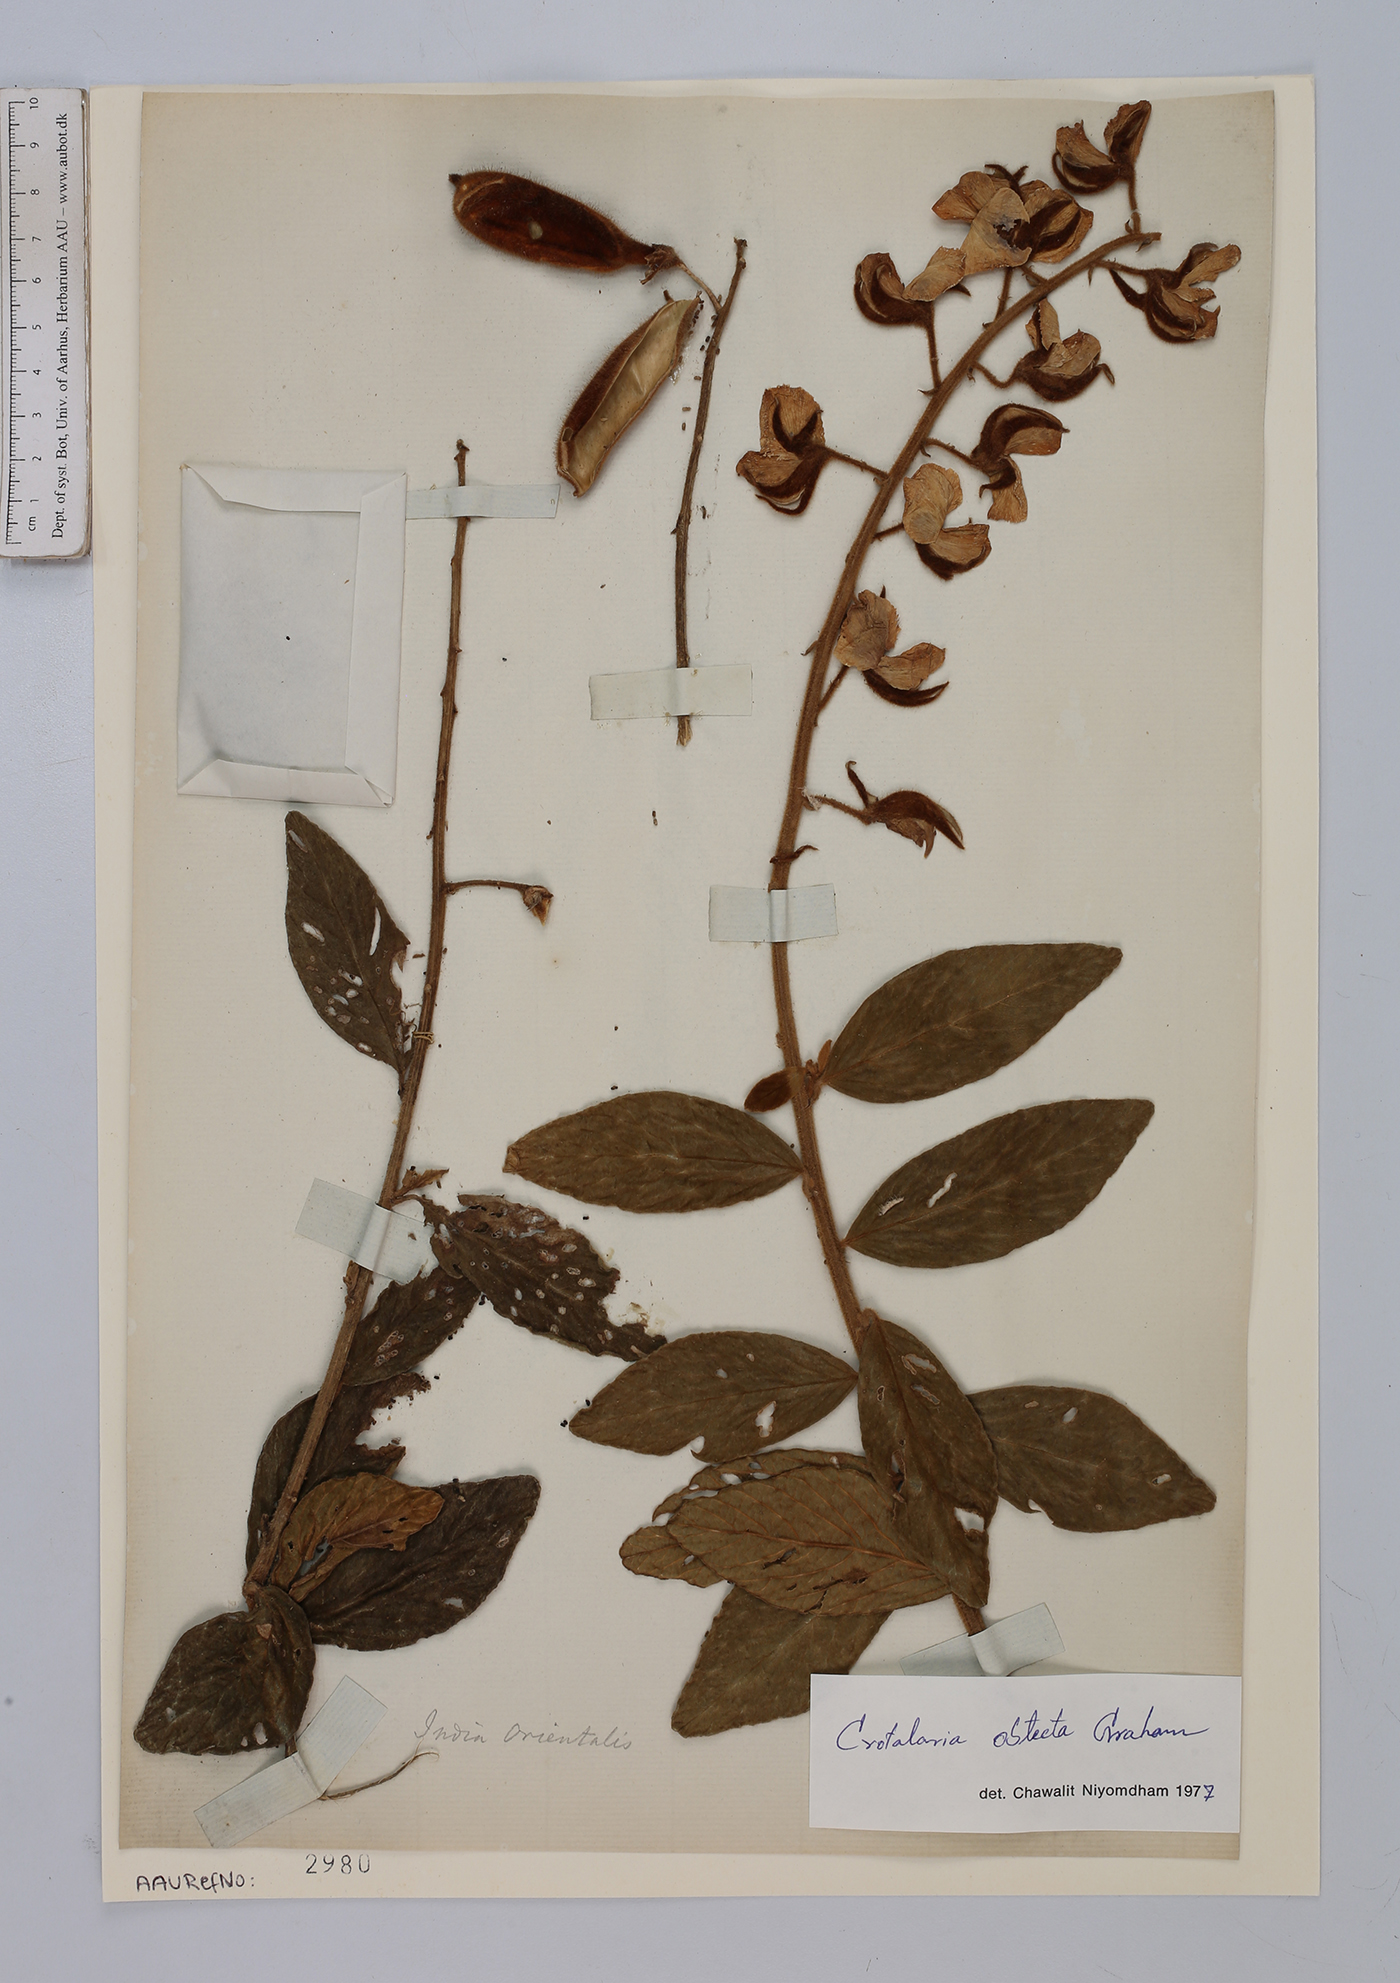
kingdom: Plantae
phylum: Tracheophyta
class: Magnoliopsida
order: Fabales
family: Fabaceae
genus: Crotalaria
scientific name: Crotalaria obtecta
